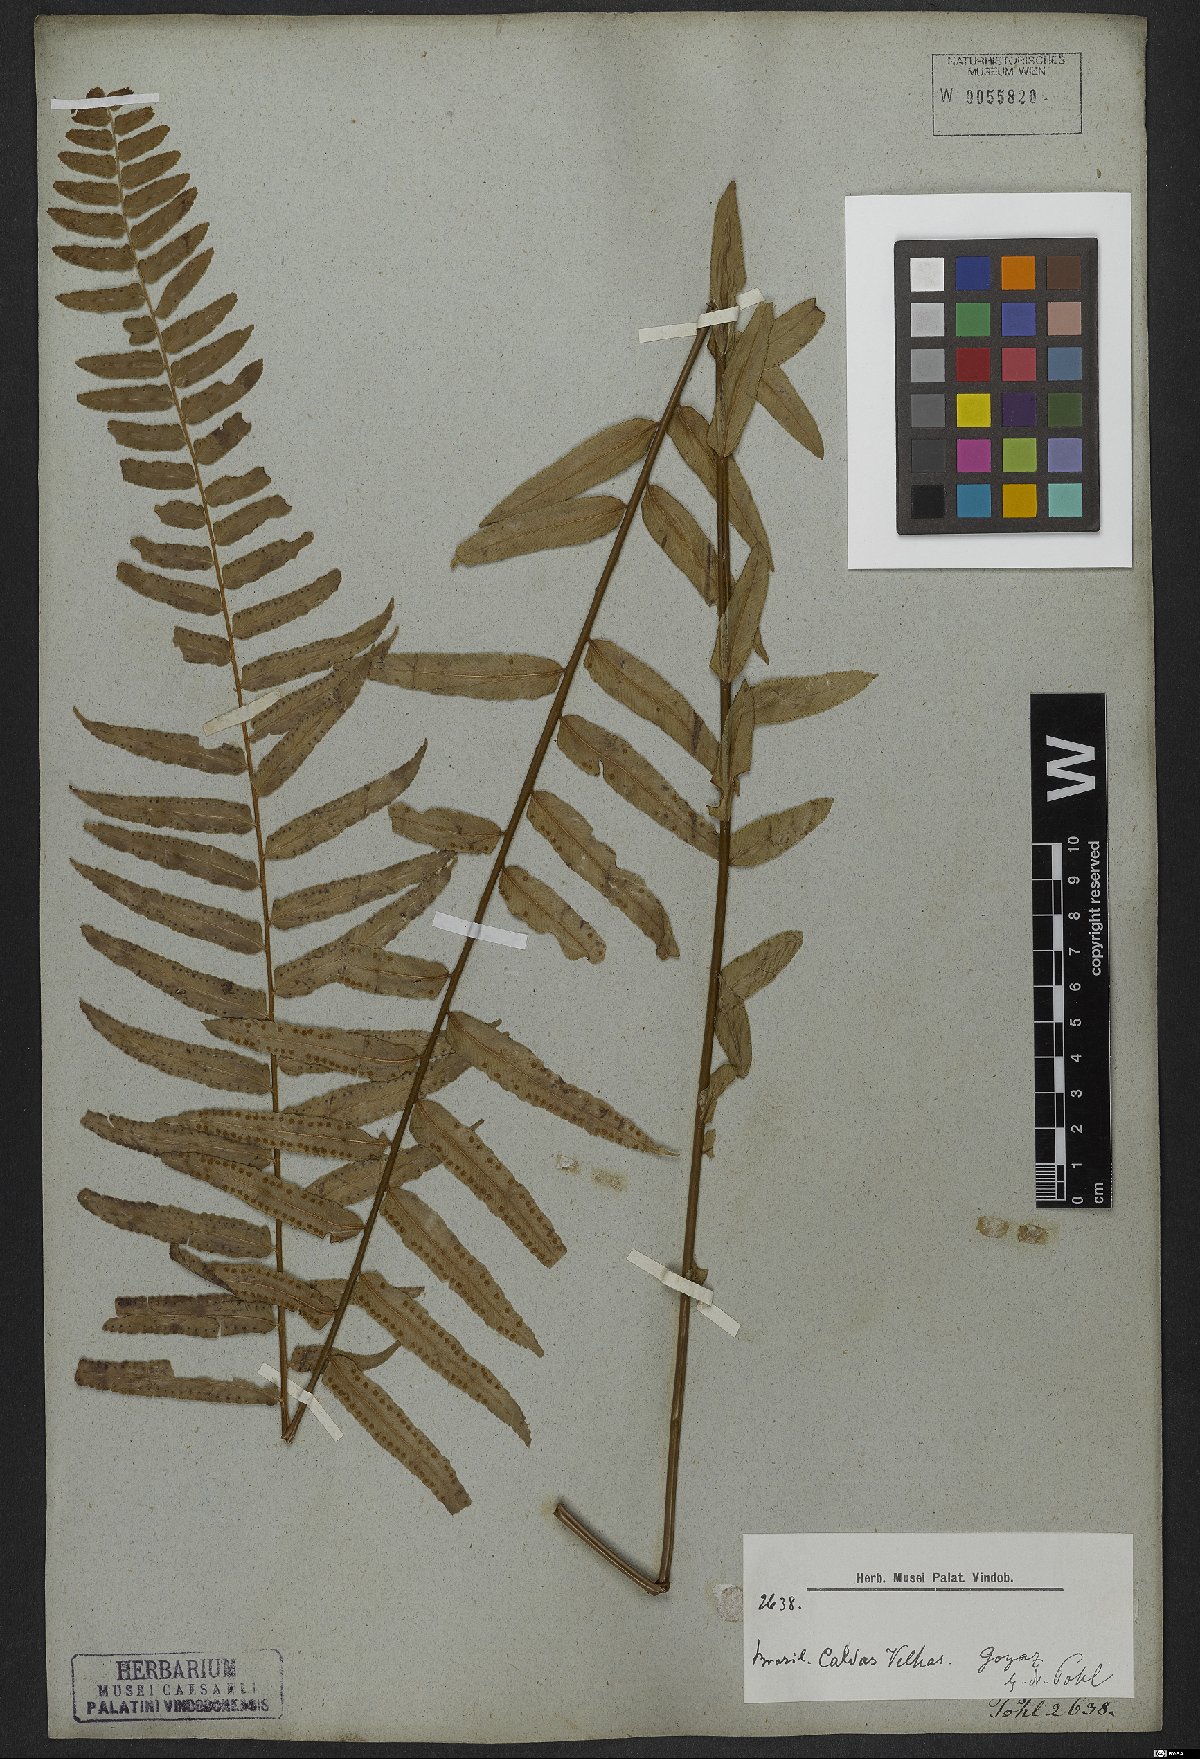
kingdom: Plantae
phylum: Tracheophyta
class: Polypodiopsida
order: Polypodiales
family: Nephrolepidaceae
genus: Nephrolepis
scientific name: Nephrolepis biserrata
